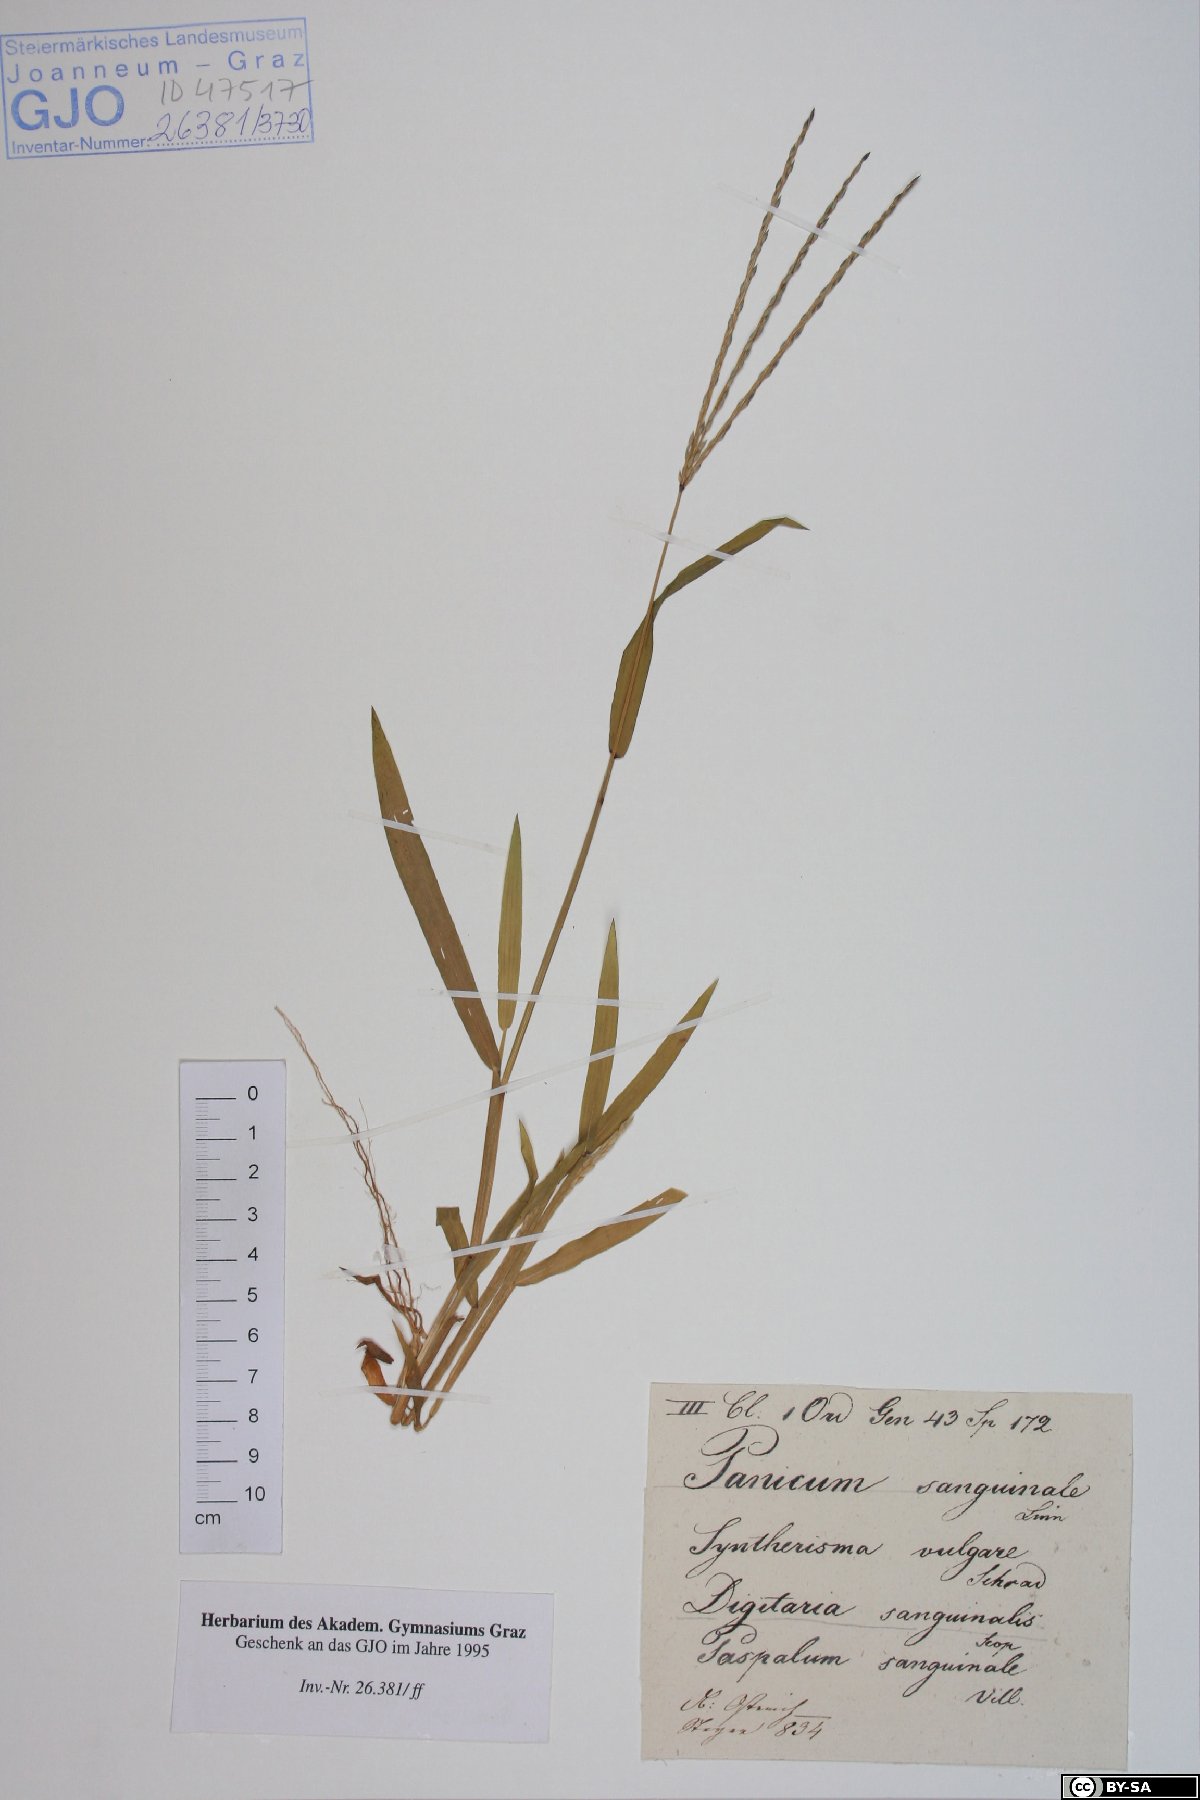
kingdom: Plantae
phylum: Tracheophyta
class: Liliopsida
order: Poales
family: Poaceae
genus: Digitaria
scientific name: Digitaria sanguinalis
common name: Hairy crabgrass
